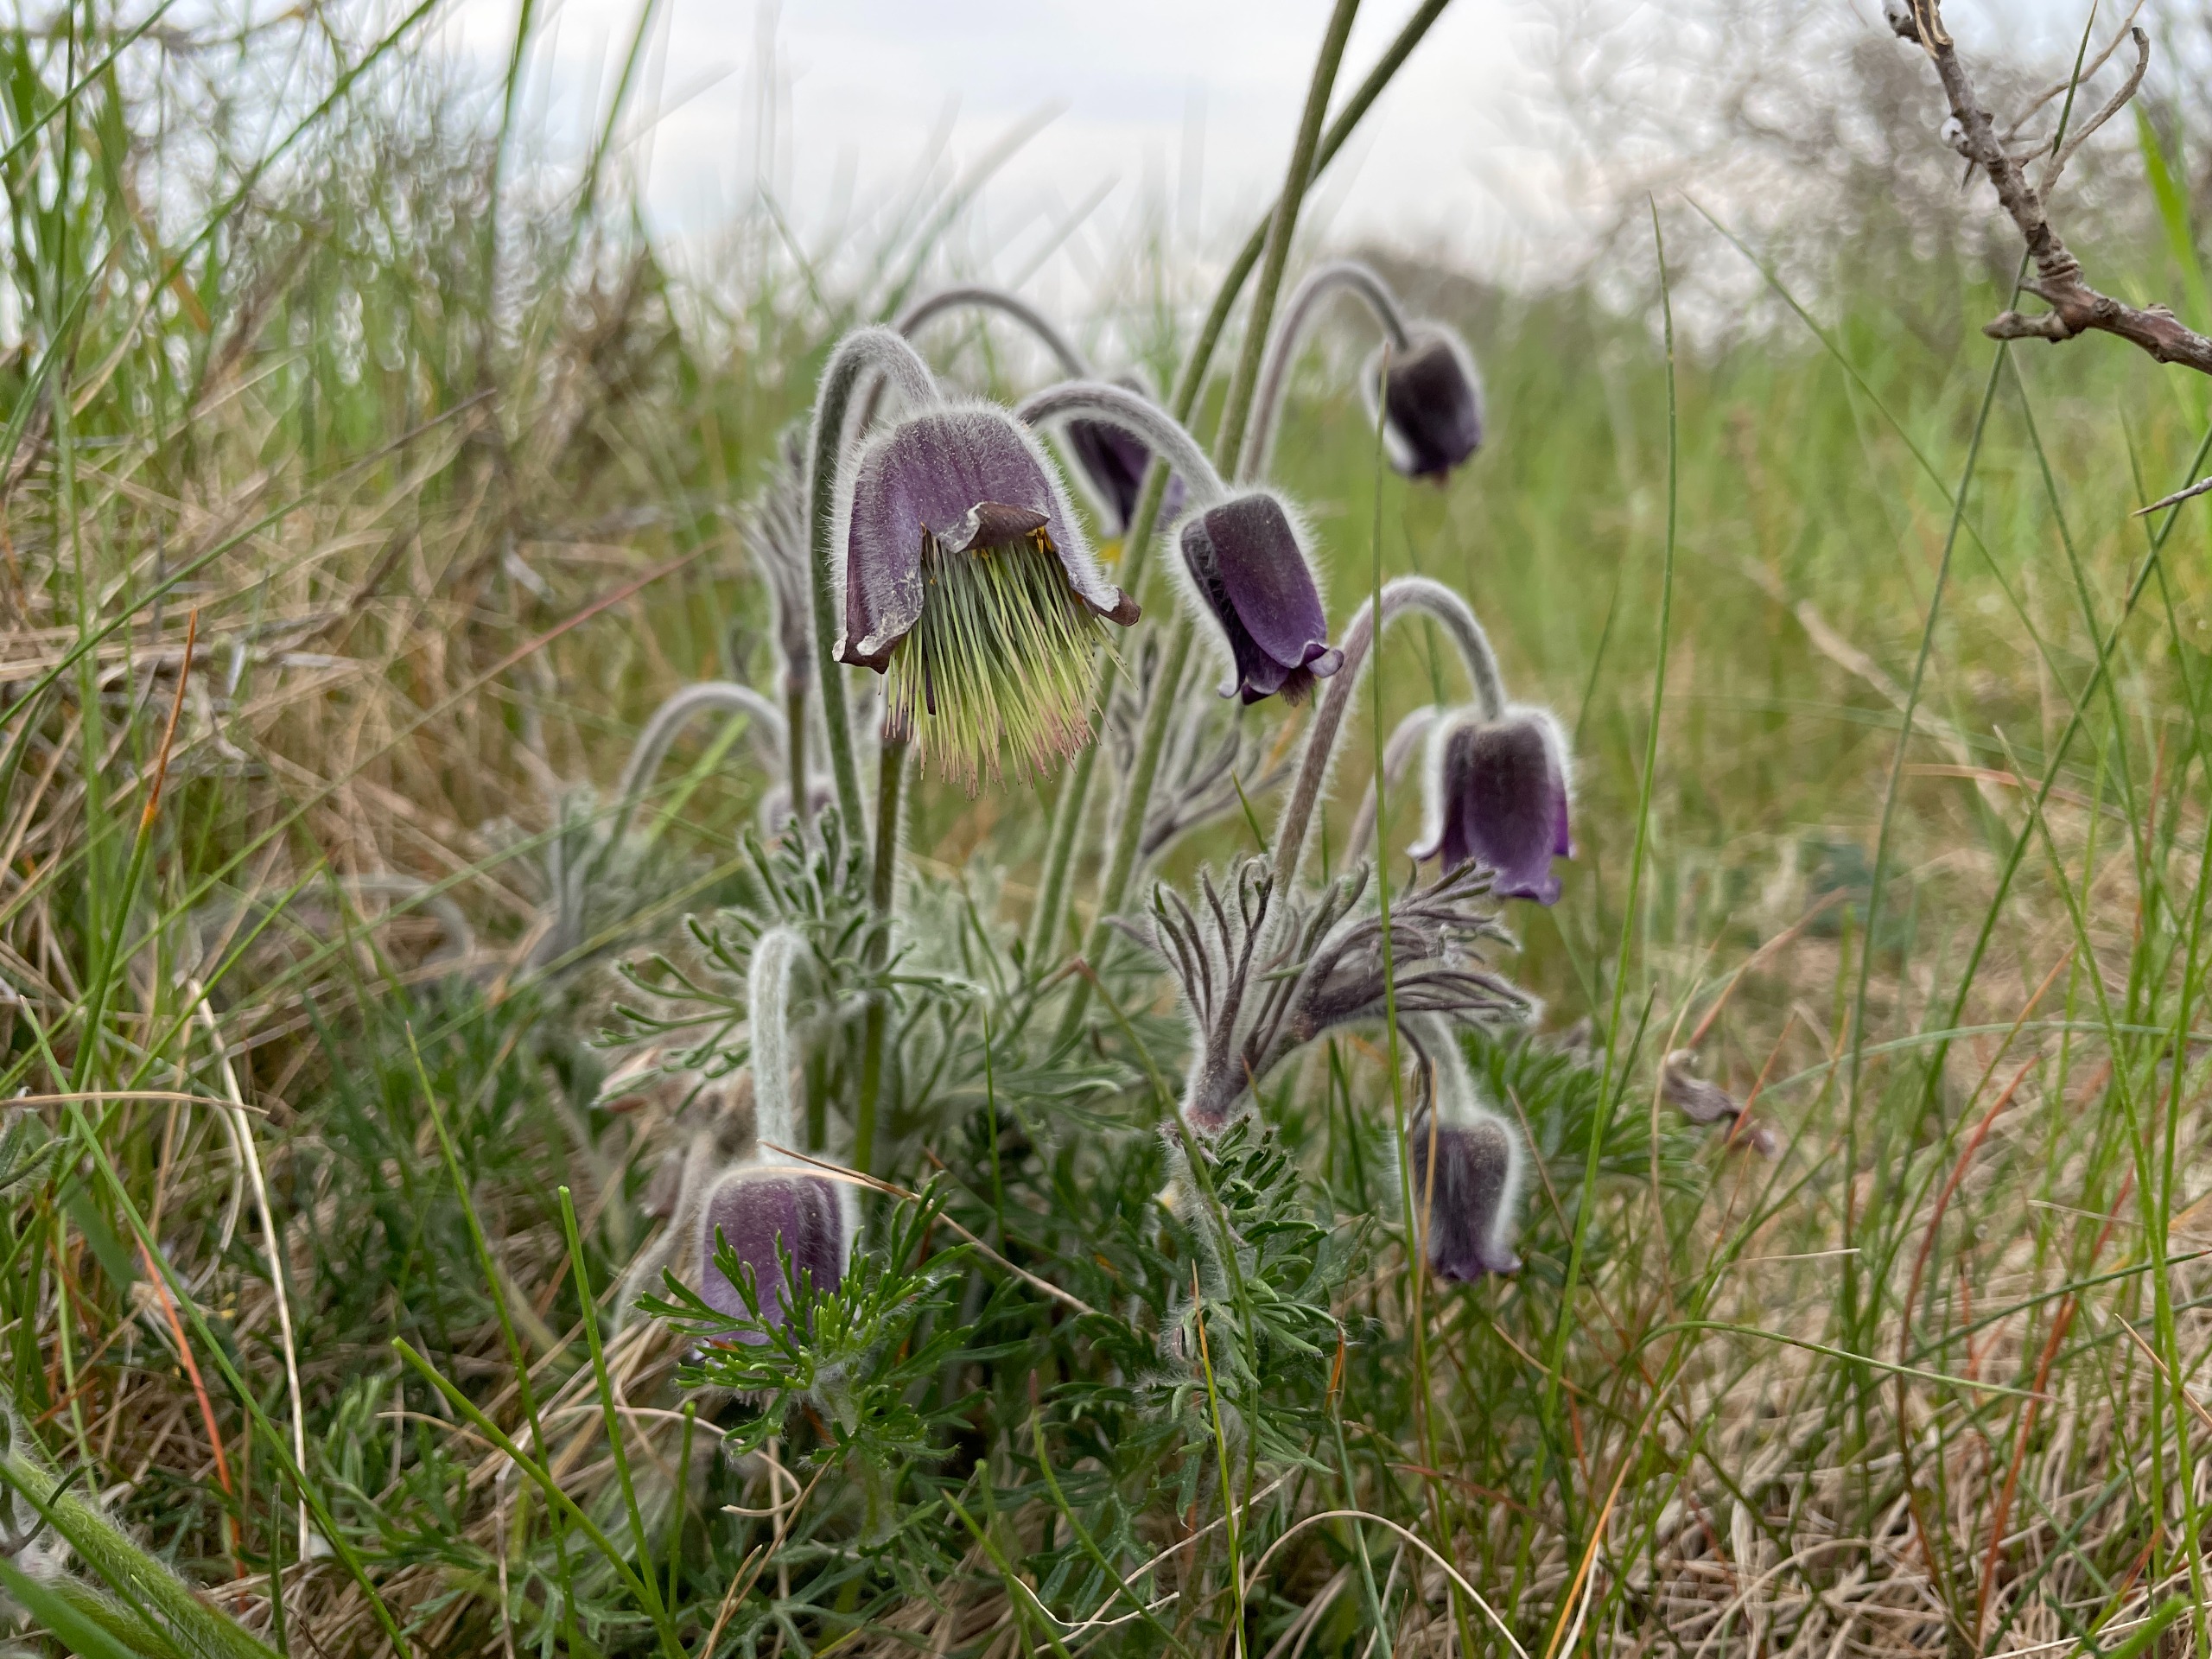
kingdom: Plantae
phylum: Tracheophyta
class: Magnoliopsida
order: Ranunculales
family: Ranunculaceae
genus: Pulsatilla
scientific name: Pulsatilla pratensis
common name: Nikkende kobjælde
